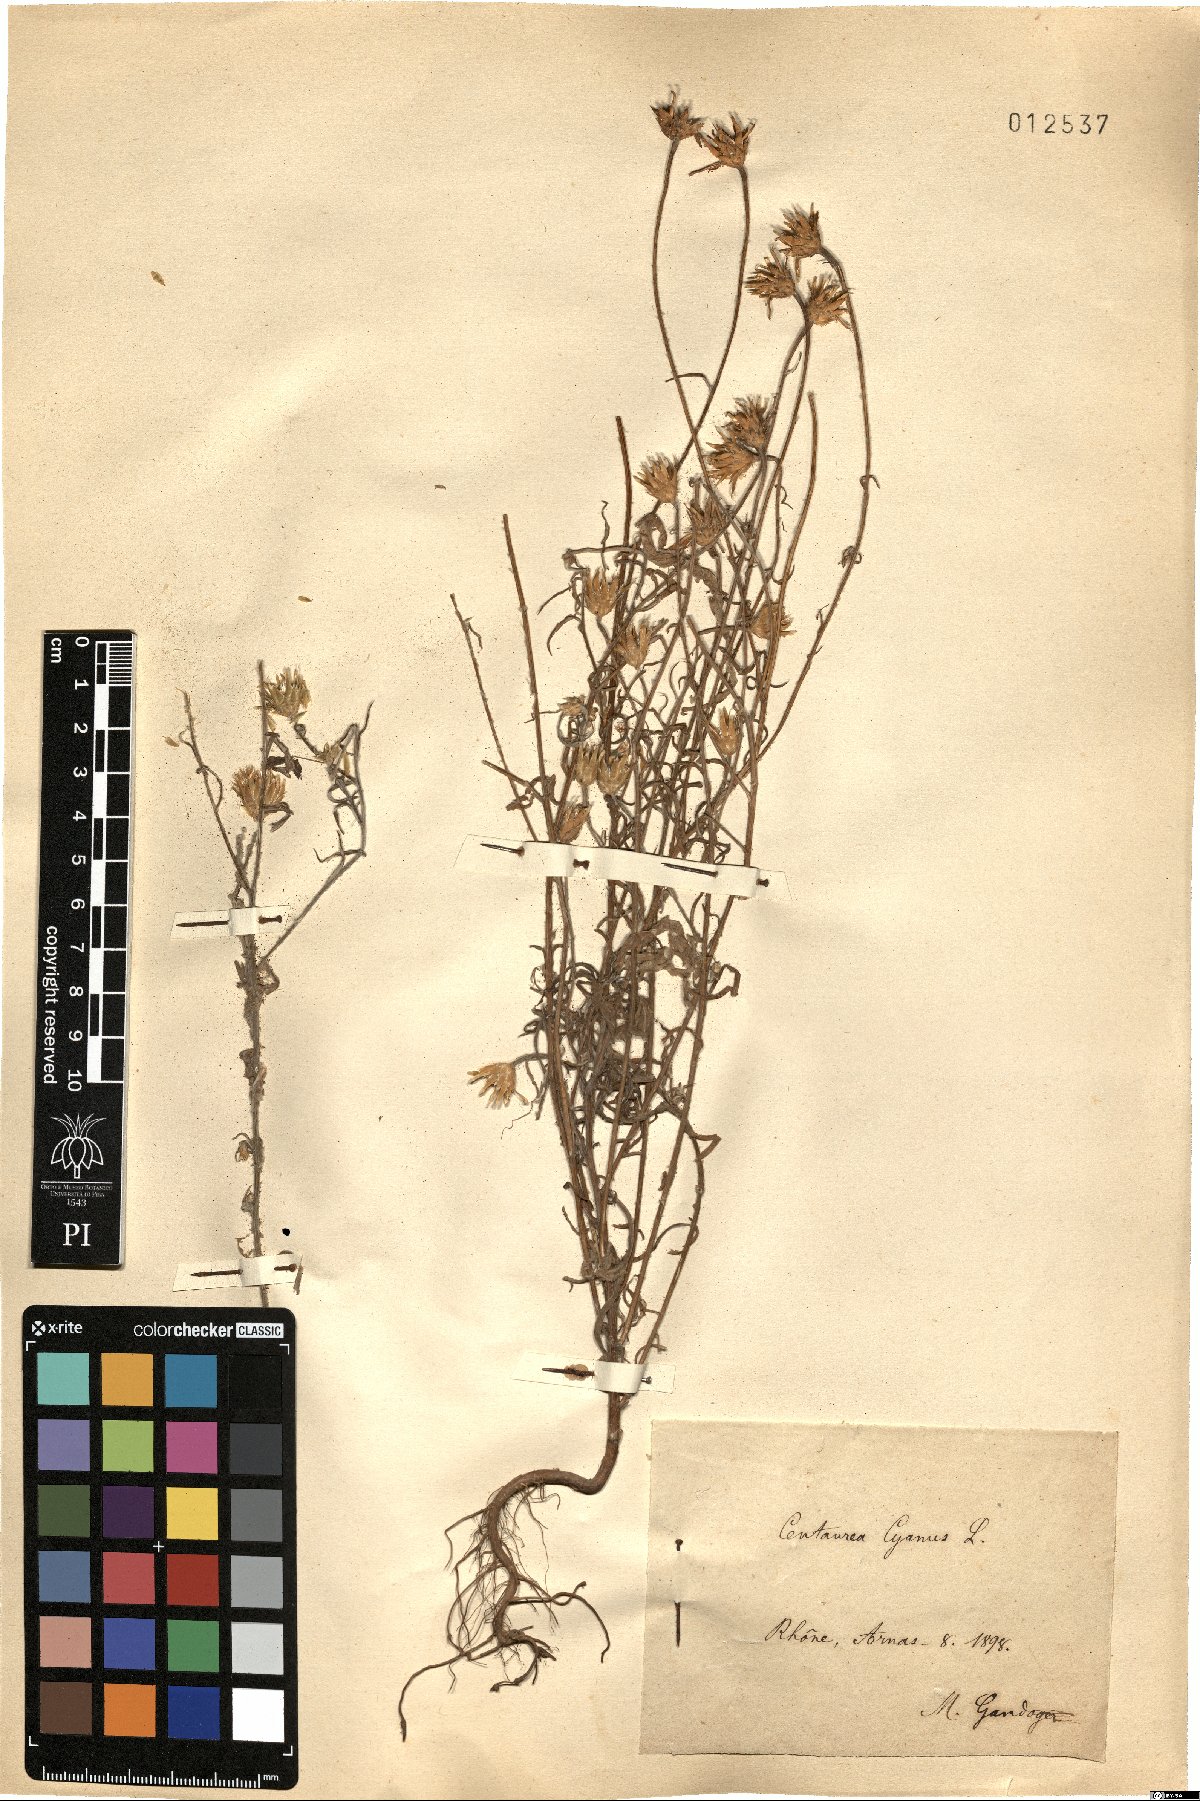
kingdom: Plantae
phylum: Tracheophyta
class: Magnoliopsida
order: Asterales
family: Asteraceae
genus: Centaurea
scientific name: Centaurea cyanus
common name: Cornflower
